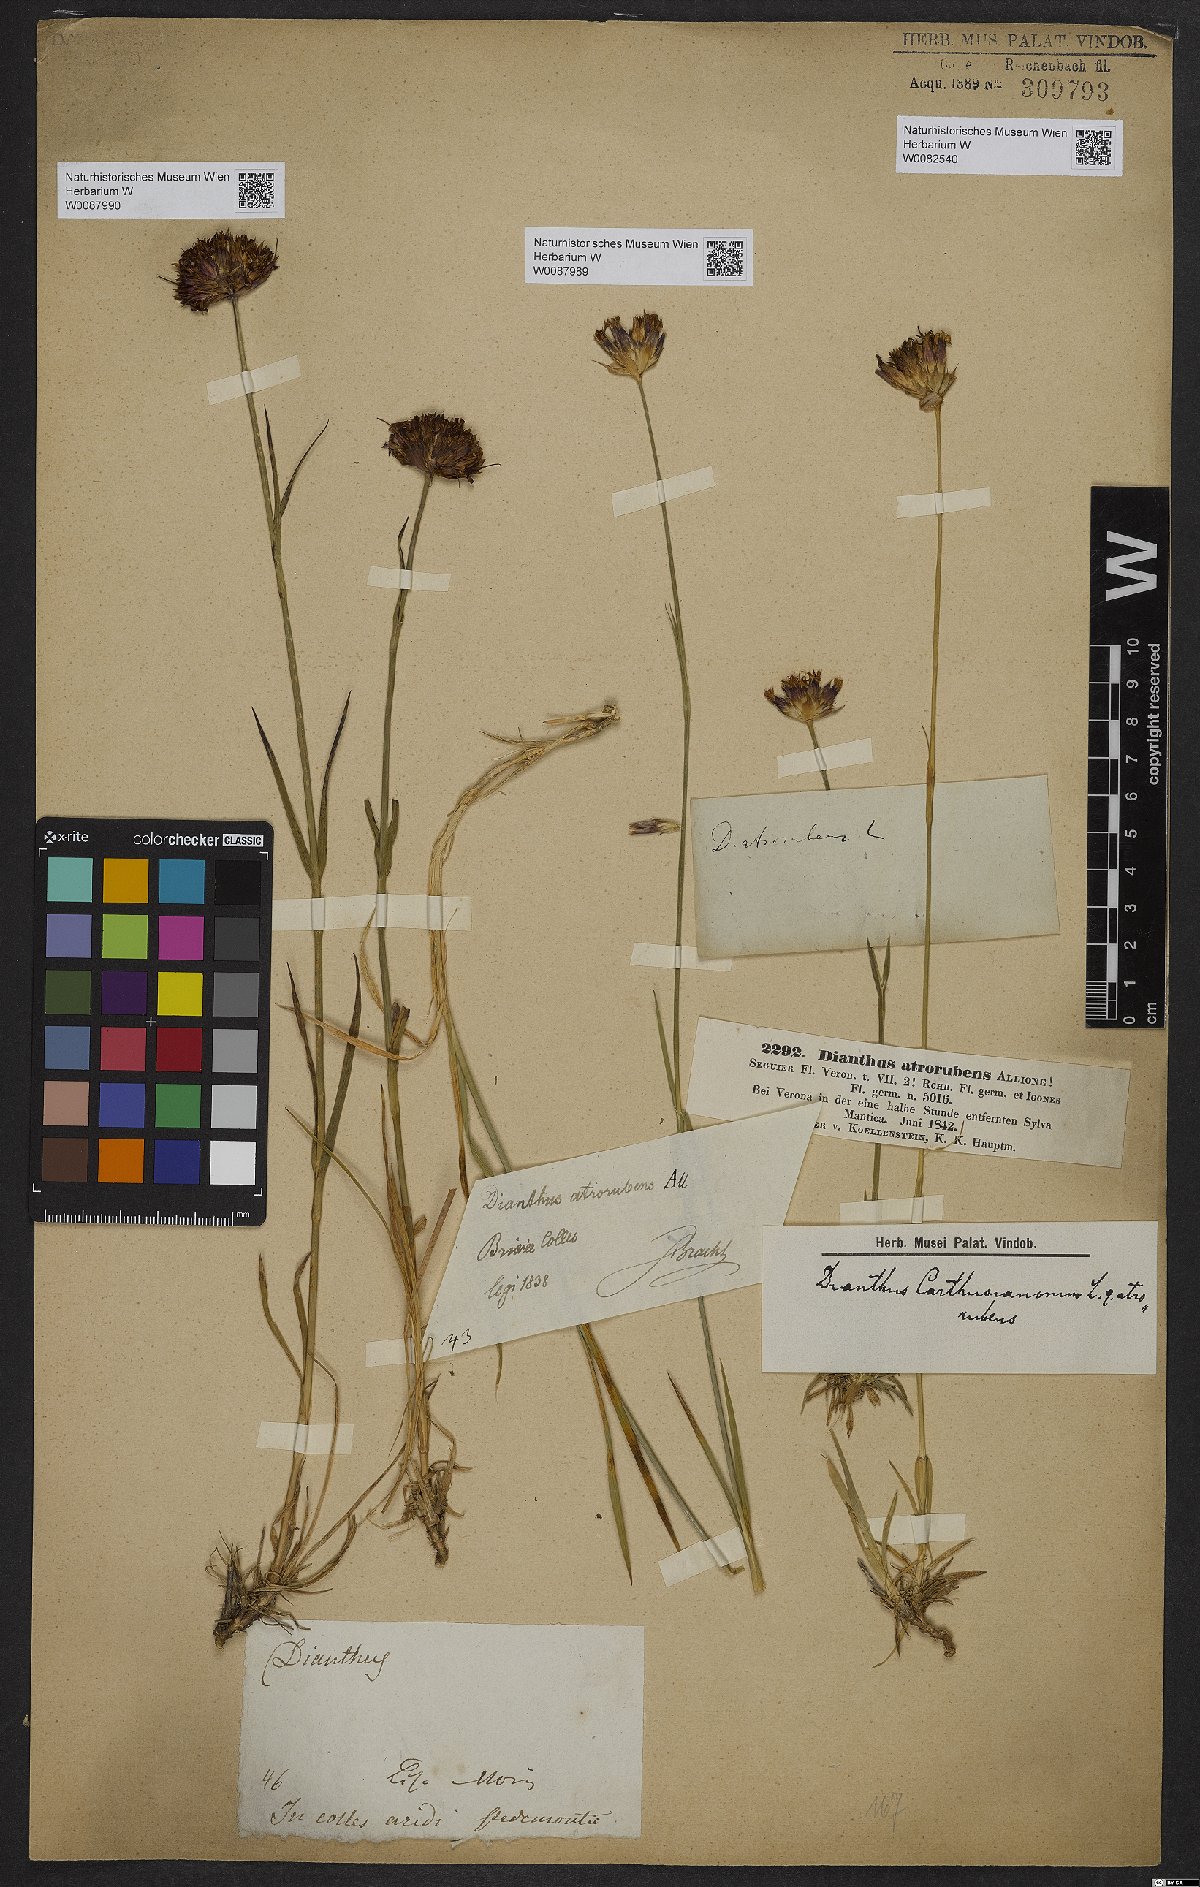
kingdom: Plantae
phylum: Tracheophyta
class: Magnoliopsida
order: Caryophyllales
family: Caryophyllaceae
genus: Dianthus
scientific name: Dianthus carthusianorum
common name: Carthusian pink
